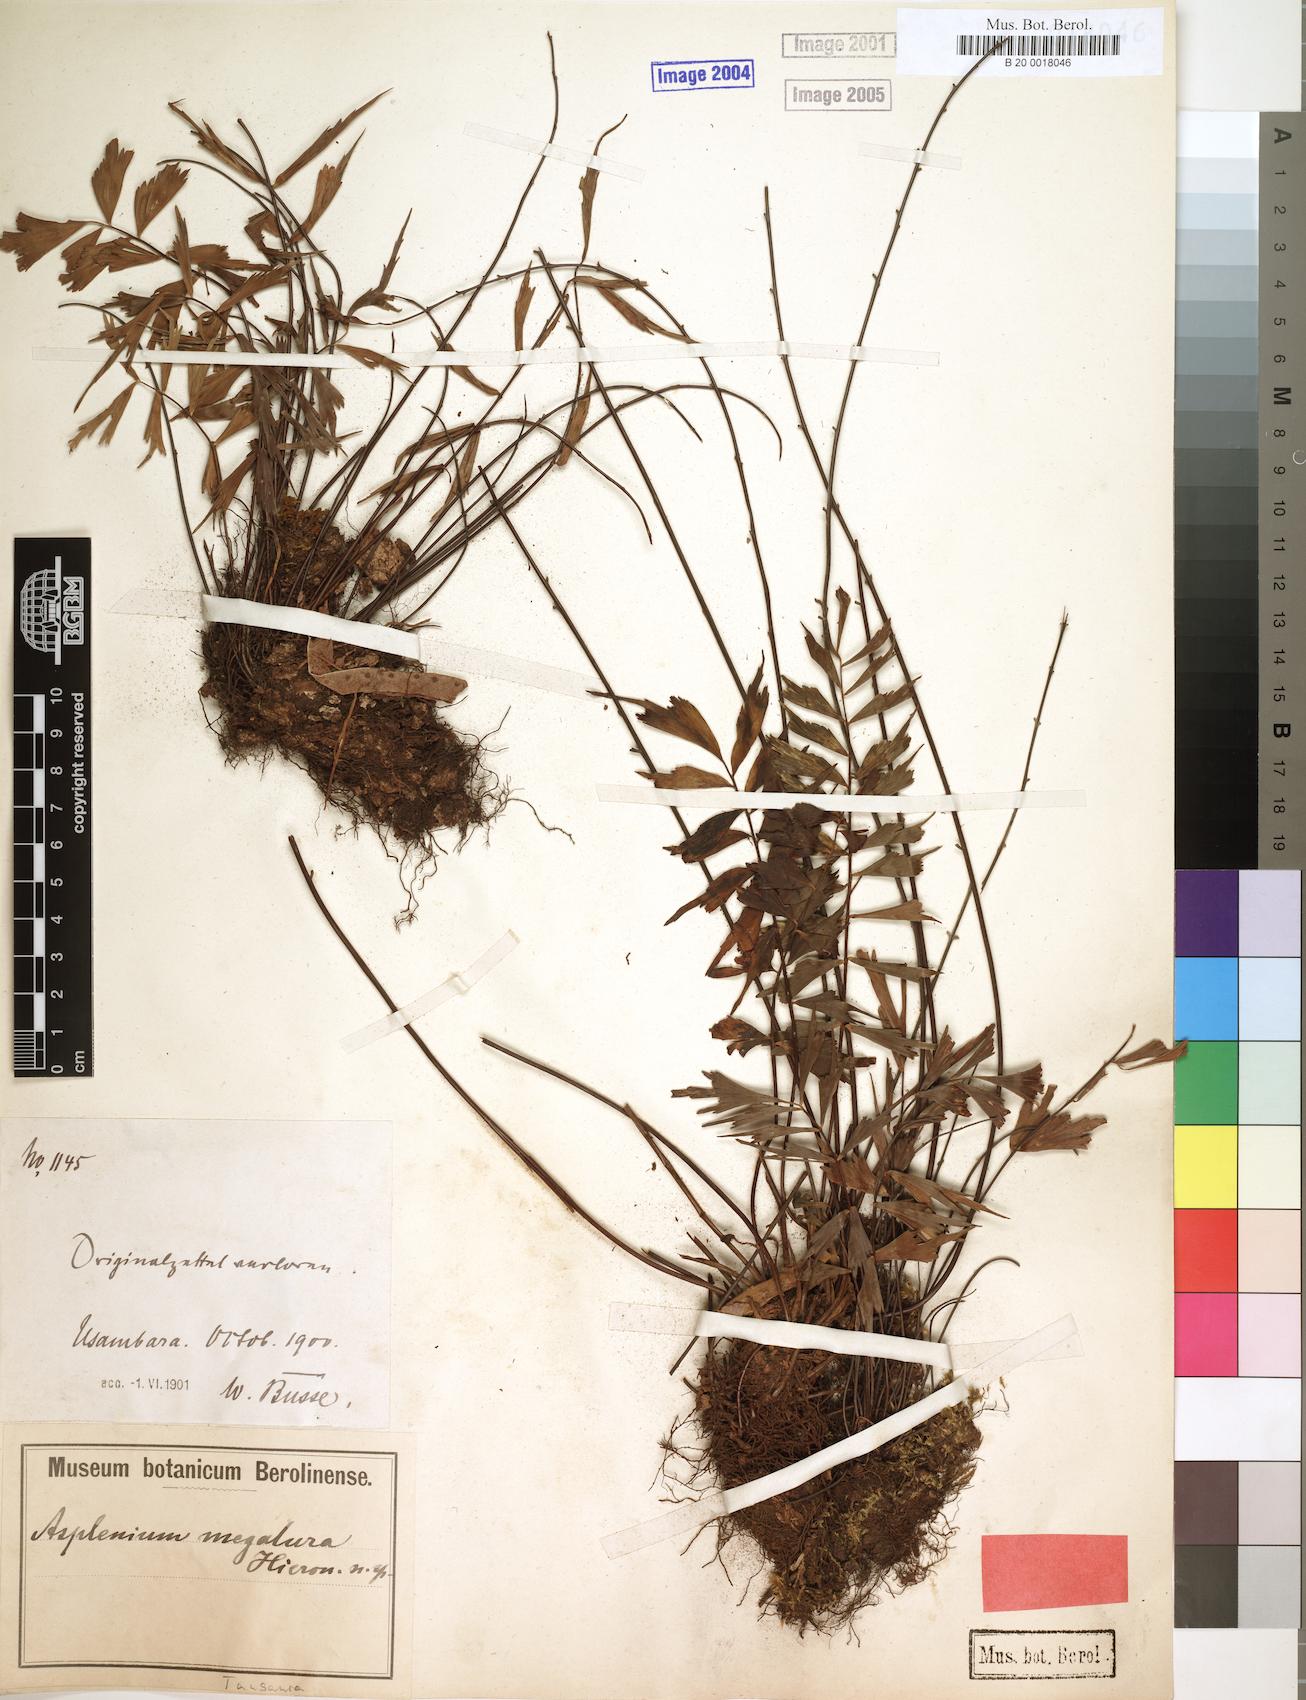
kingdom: Plantae
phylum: Tracheophyta
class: Polypodiopsida
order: Polypodiales
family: Aspleniaceae
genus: Asplenium
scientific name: Asplenium megalura
